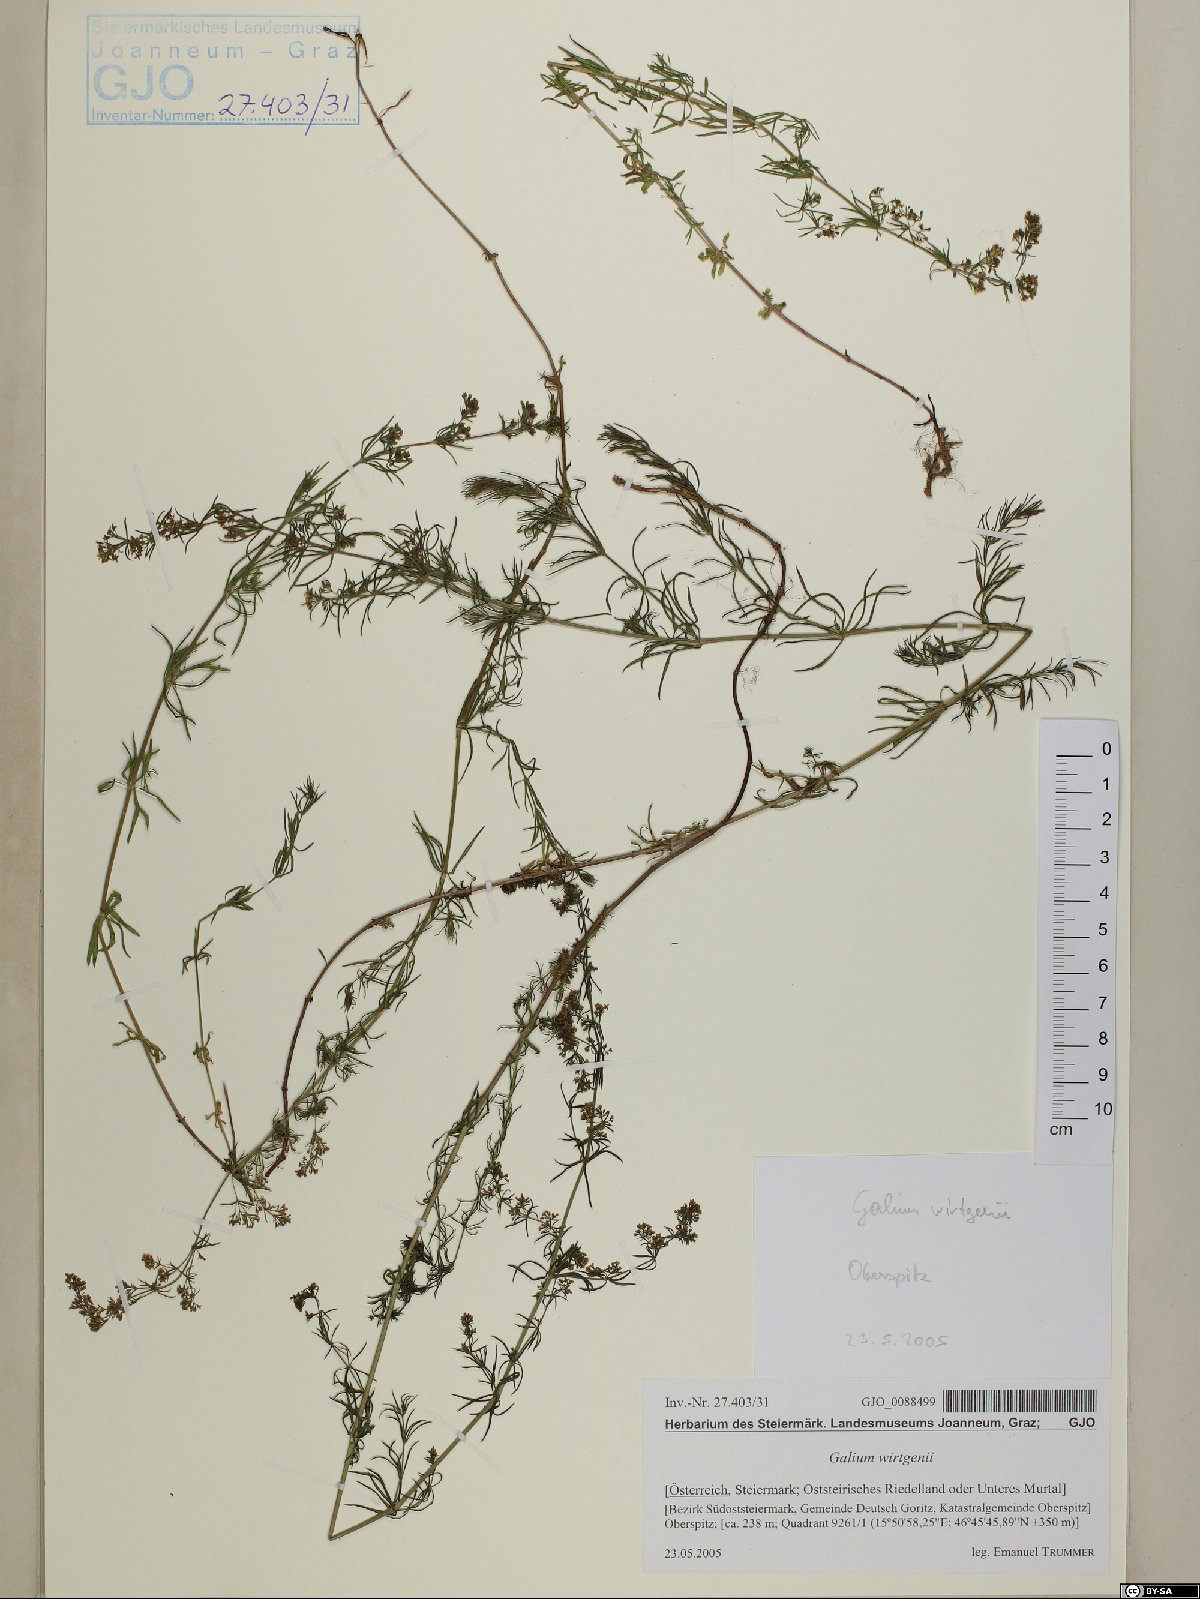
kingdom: Plantae
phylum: Tracheophyta
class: Magnoliopsida
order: Gentianales
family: Rubiaceae
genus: Galium
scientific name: Galium verum
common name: Lady's bedstraw
